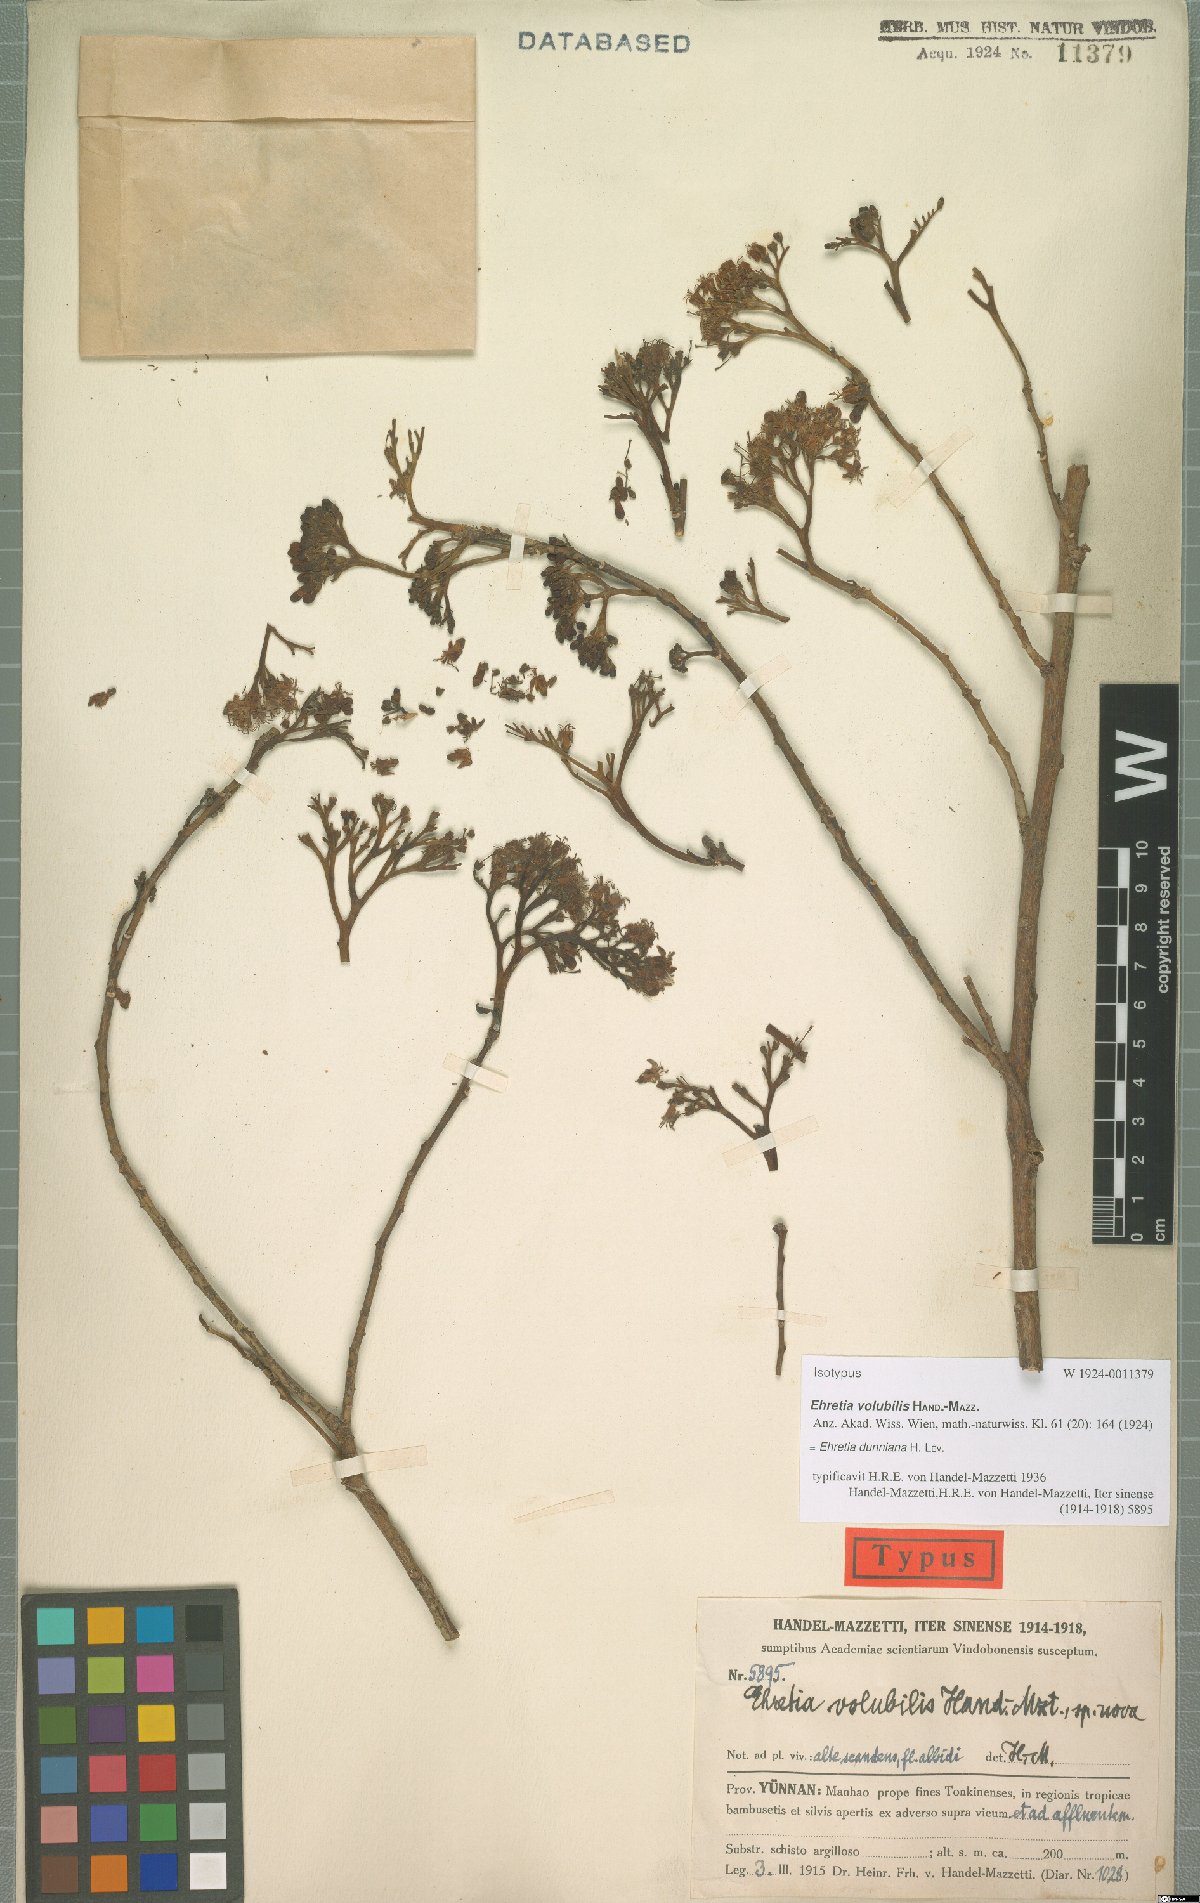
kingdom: Plantae
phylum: Tracheophyta
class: Magnoliopsida
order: Boraginales
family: Ehretiaceae
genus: Ehretia
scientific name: Ehretia dunniana
